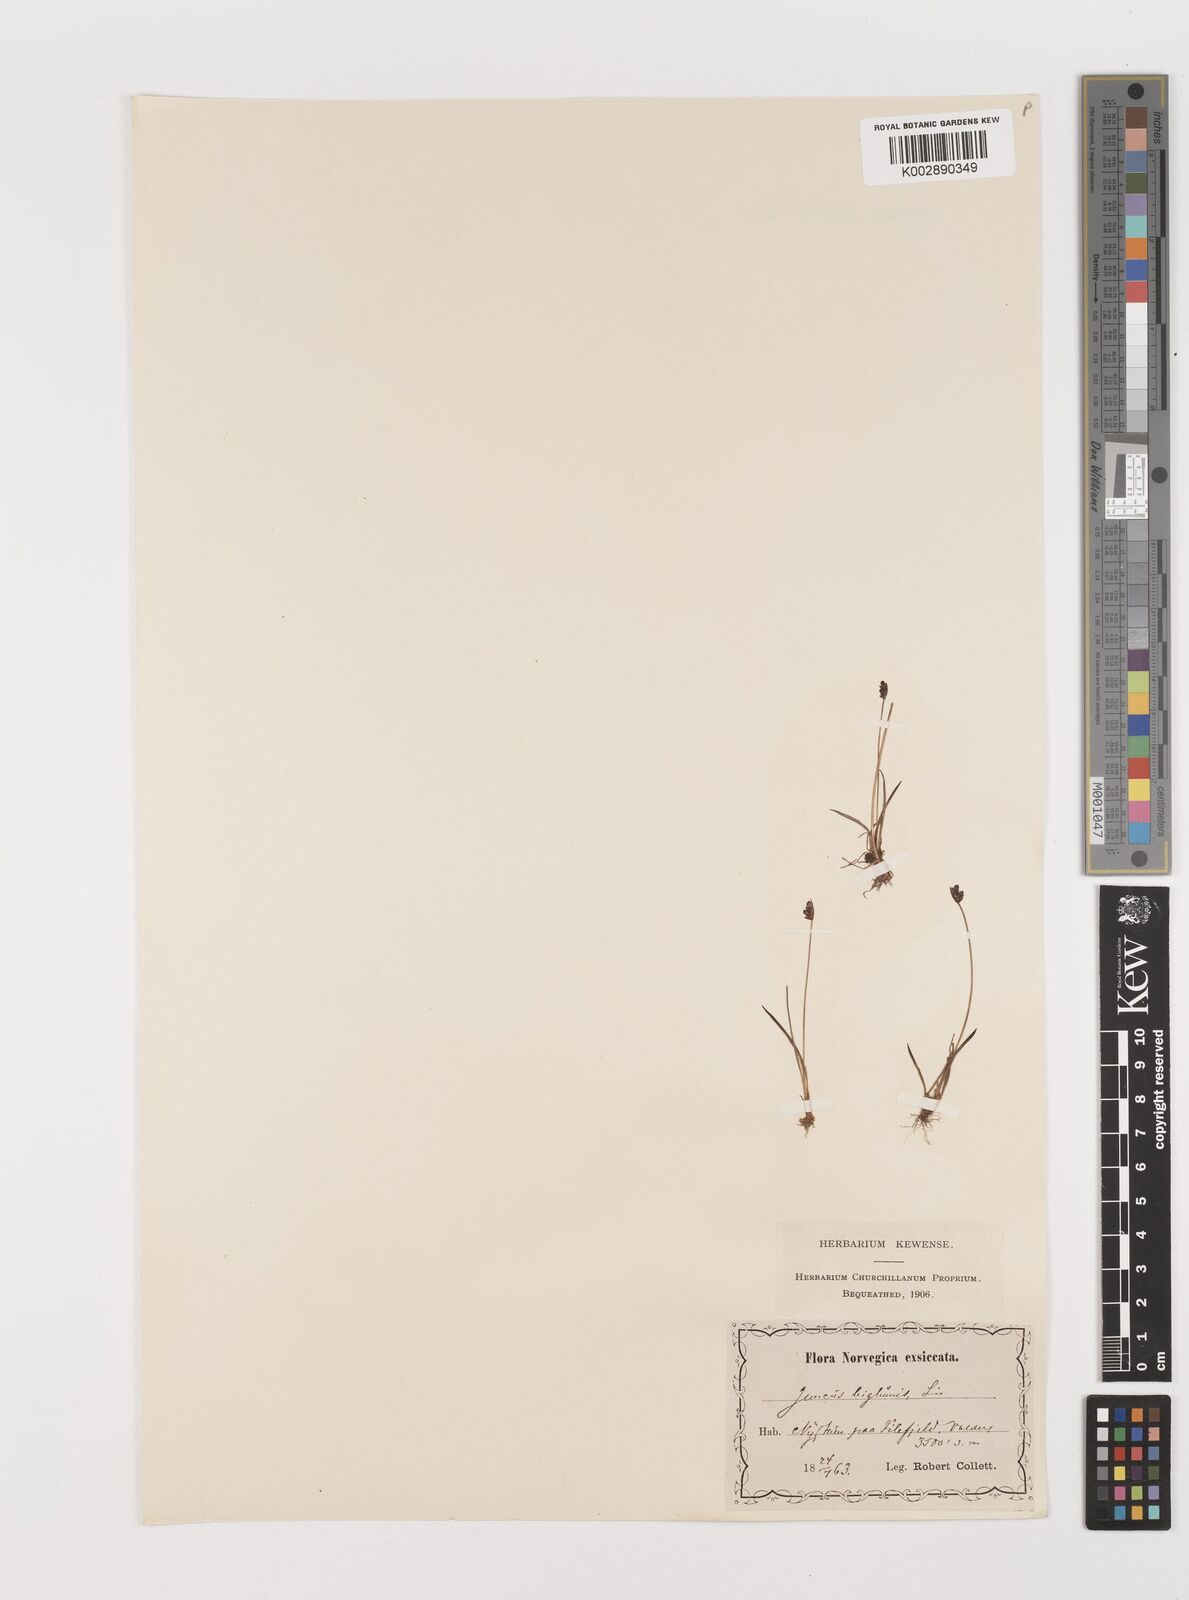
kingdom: Plantae
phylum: Tracheophyta
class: Liliopsida
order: Poales
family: Juncaceae
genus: Juncus
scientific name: Juncus biglumis
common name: Two-flowered rush
